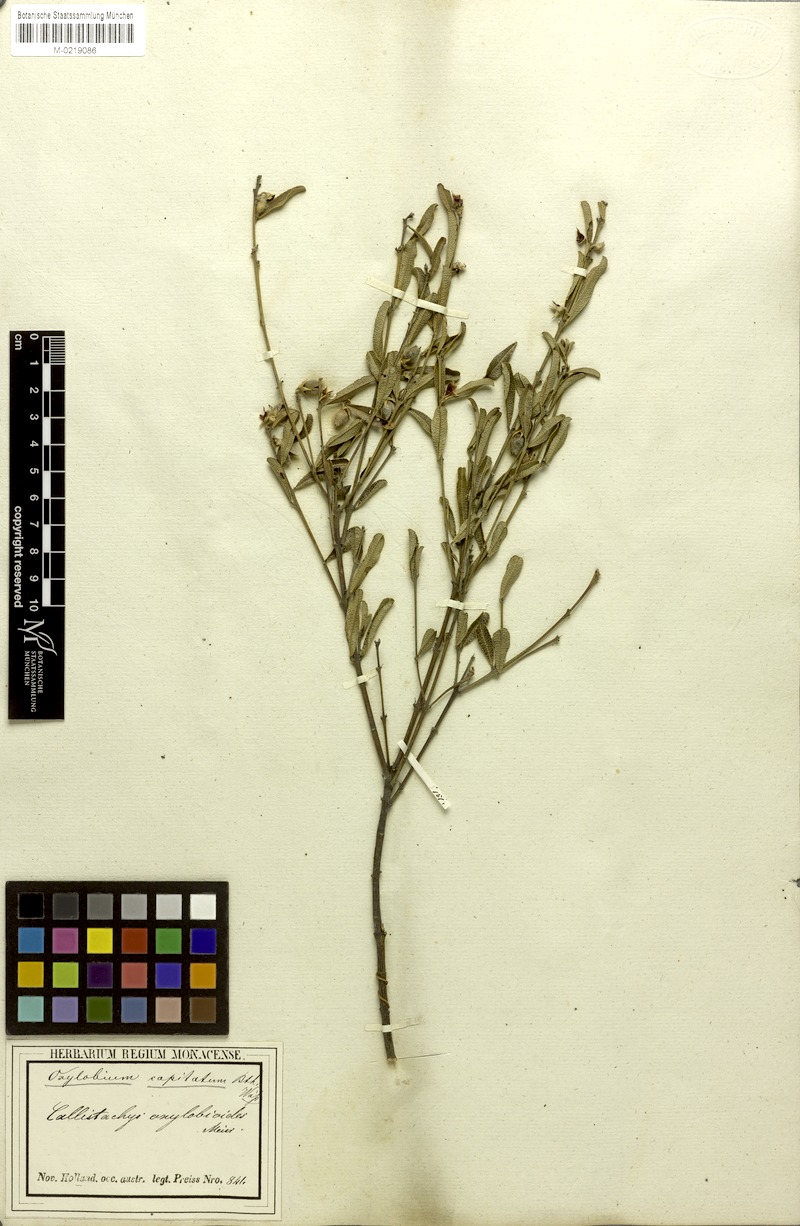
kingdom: Plantae
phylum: Tracheophyta
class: Magnoliopsida
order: Fabales
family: Fabaceae
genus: Gastrolobium
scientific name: Gastrolobium linearifolium
